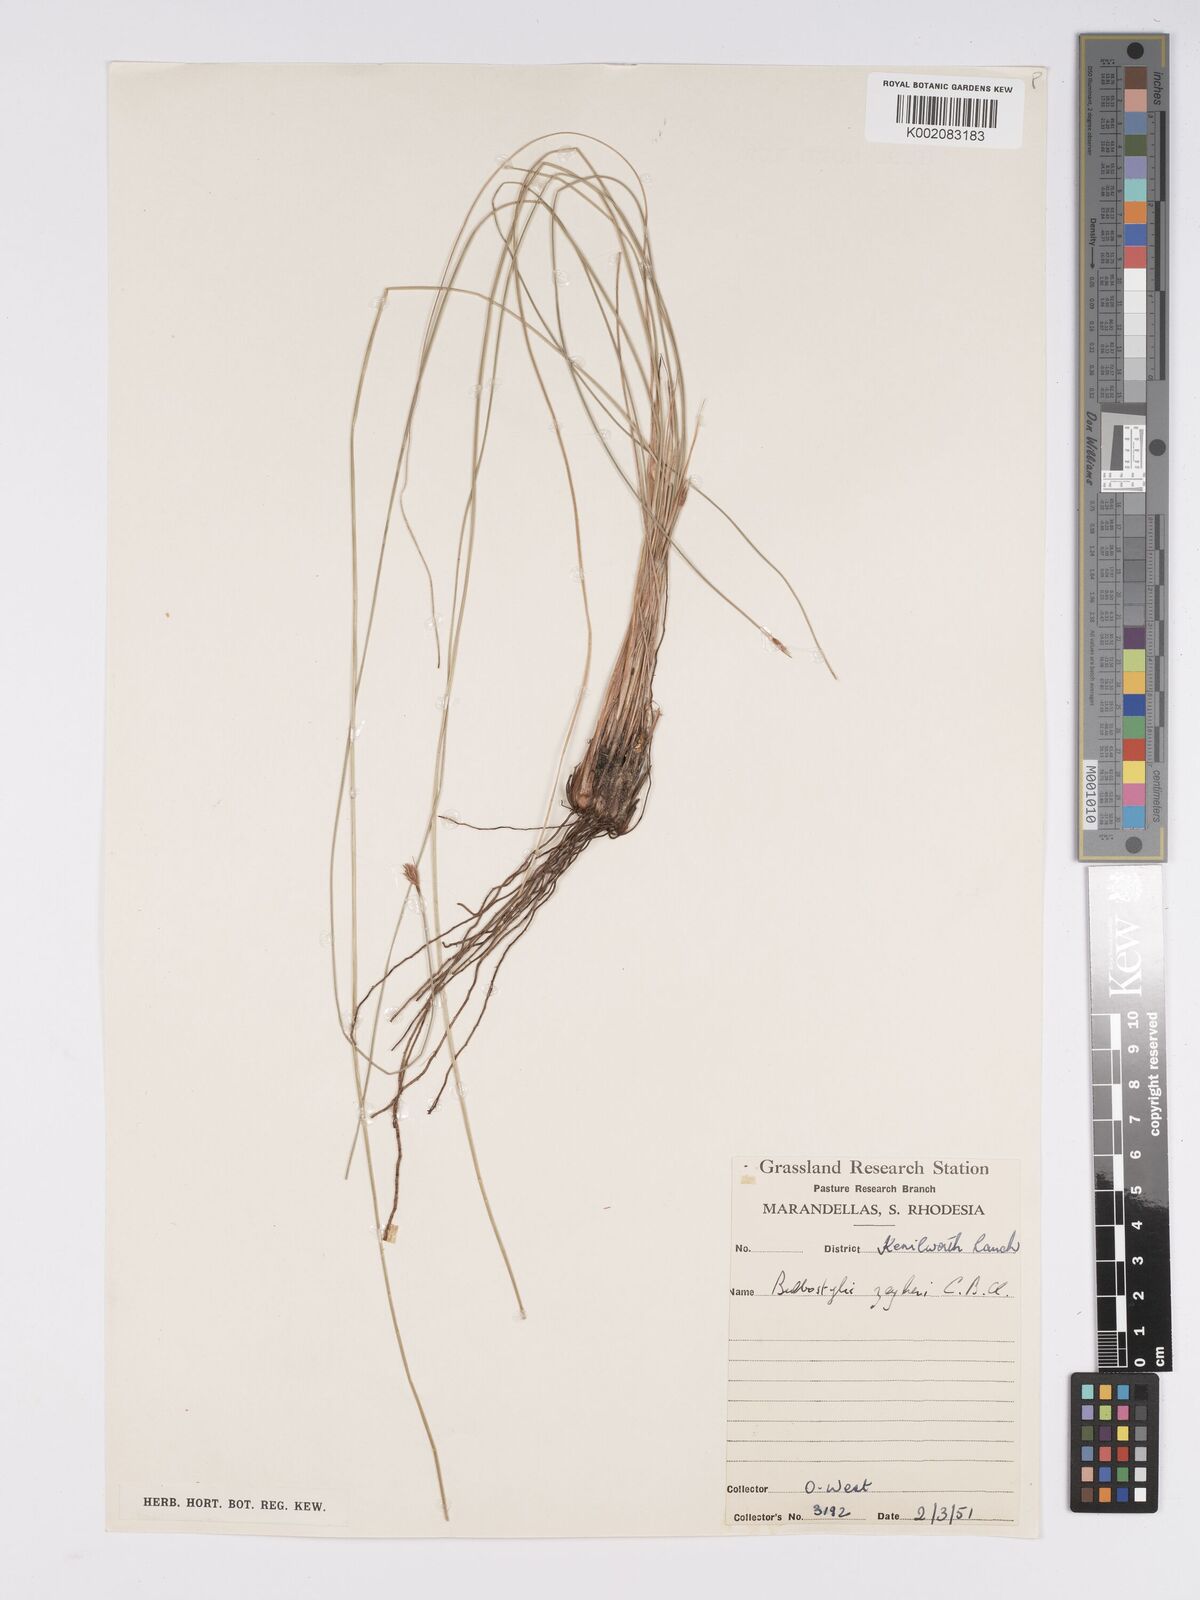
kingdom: Plantae
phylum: Tracheophyta
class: Liliopsida
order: Poales
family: Cyperaceae
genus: Bulbostylis
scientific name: Bulbostylis contexta
